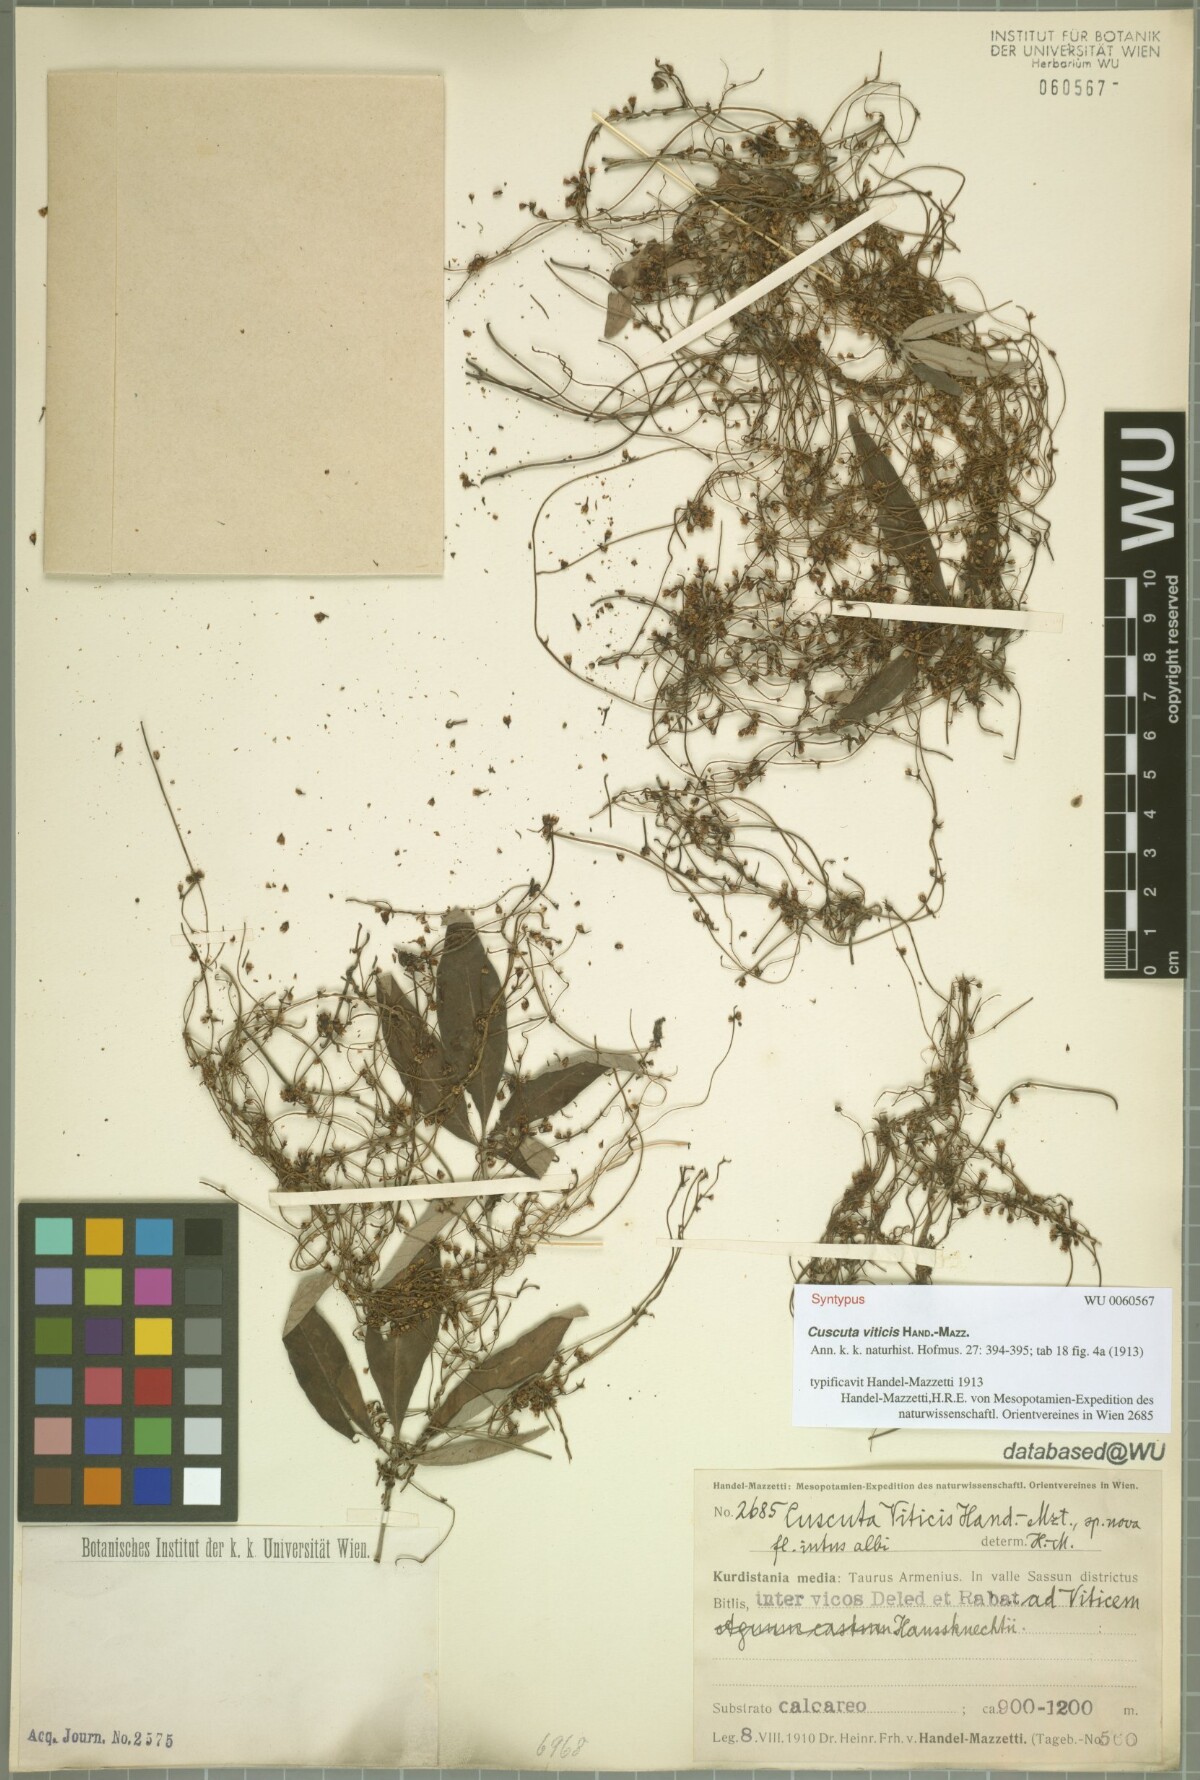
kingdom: Plantae
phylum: Tracheophyta
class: Magnoliopsida
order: Solanales
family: Convolvulaceae
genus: Cuscuta
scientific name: Cuscuta babylonica
